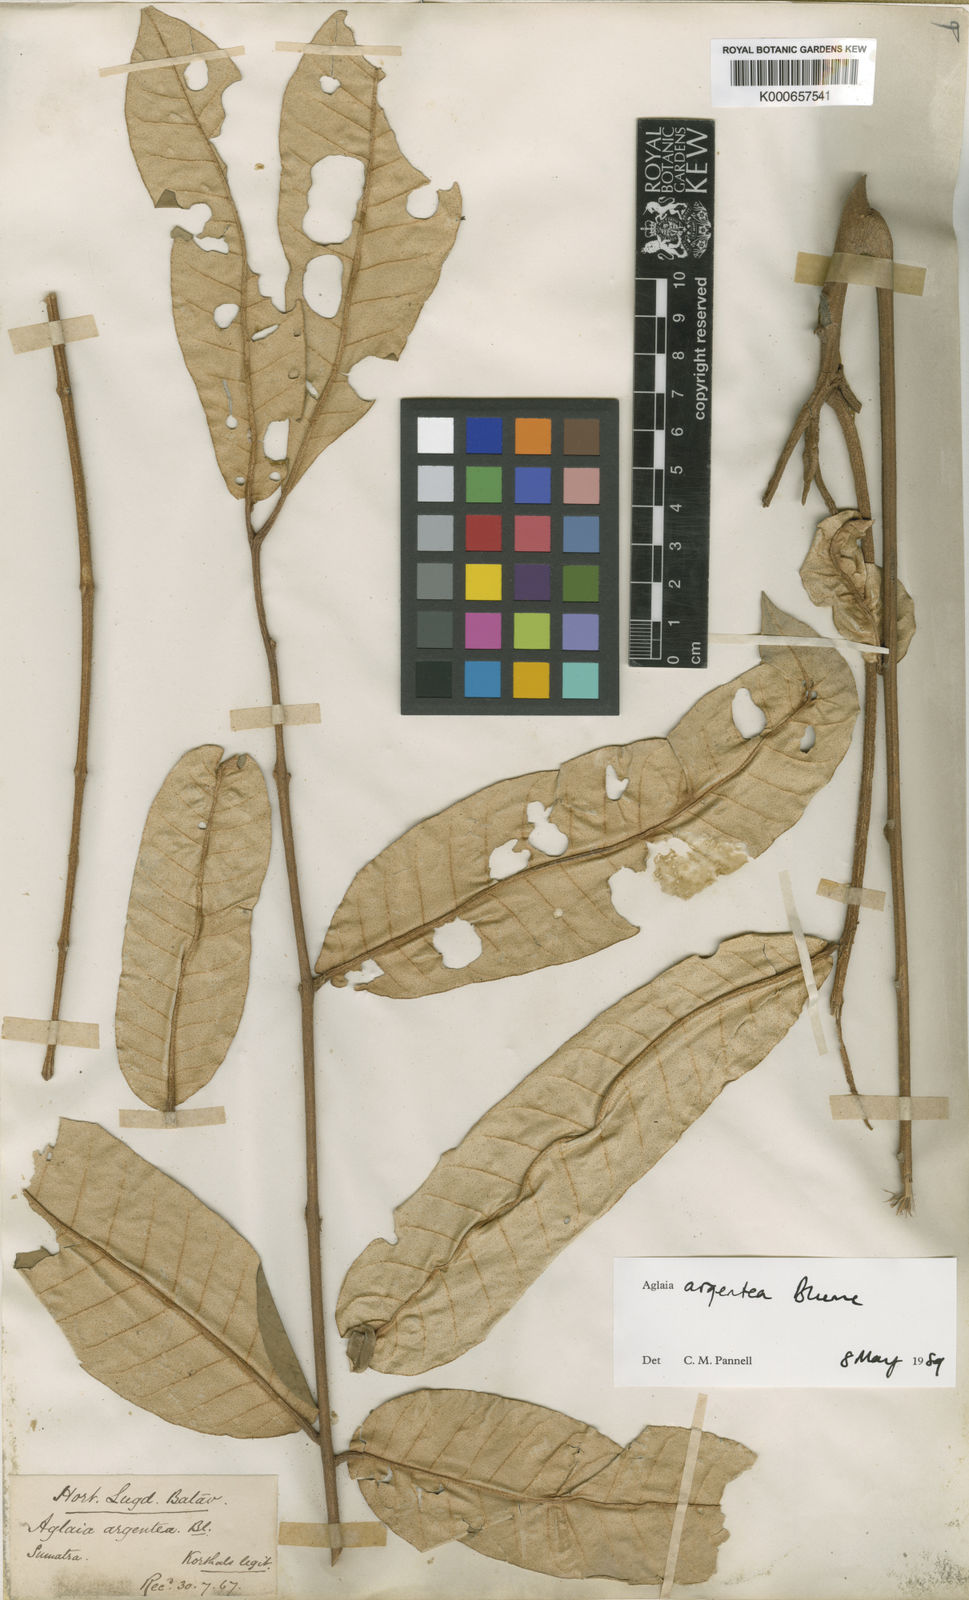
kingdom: Plantae
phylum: Tracheophyta
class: Magnoliopsida
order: Sapindales
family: Meliaceae
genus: Aglaia
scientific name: Aglaia argentea
